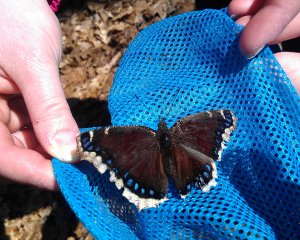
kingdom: Animalia
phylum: Arthropoda
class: Insecta
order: Lepidoptera
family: Nymphalidae
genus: Nymphalis
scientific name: Nymphalis antiopa
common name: Mourning Cloak
